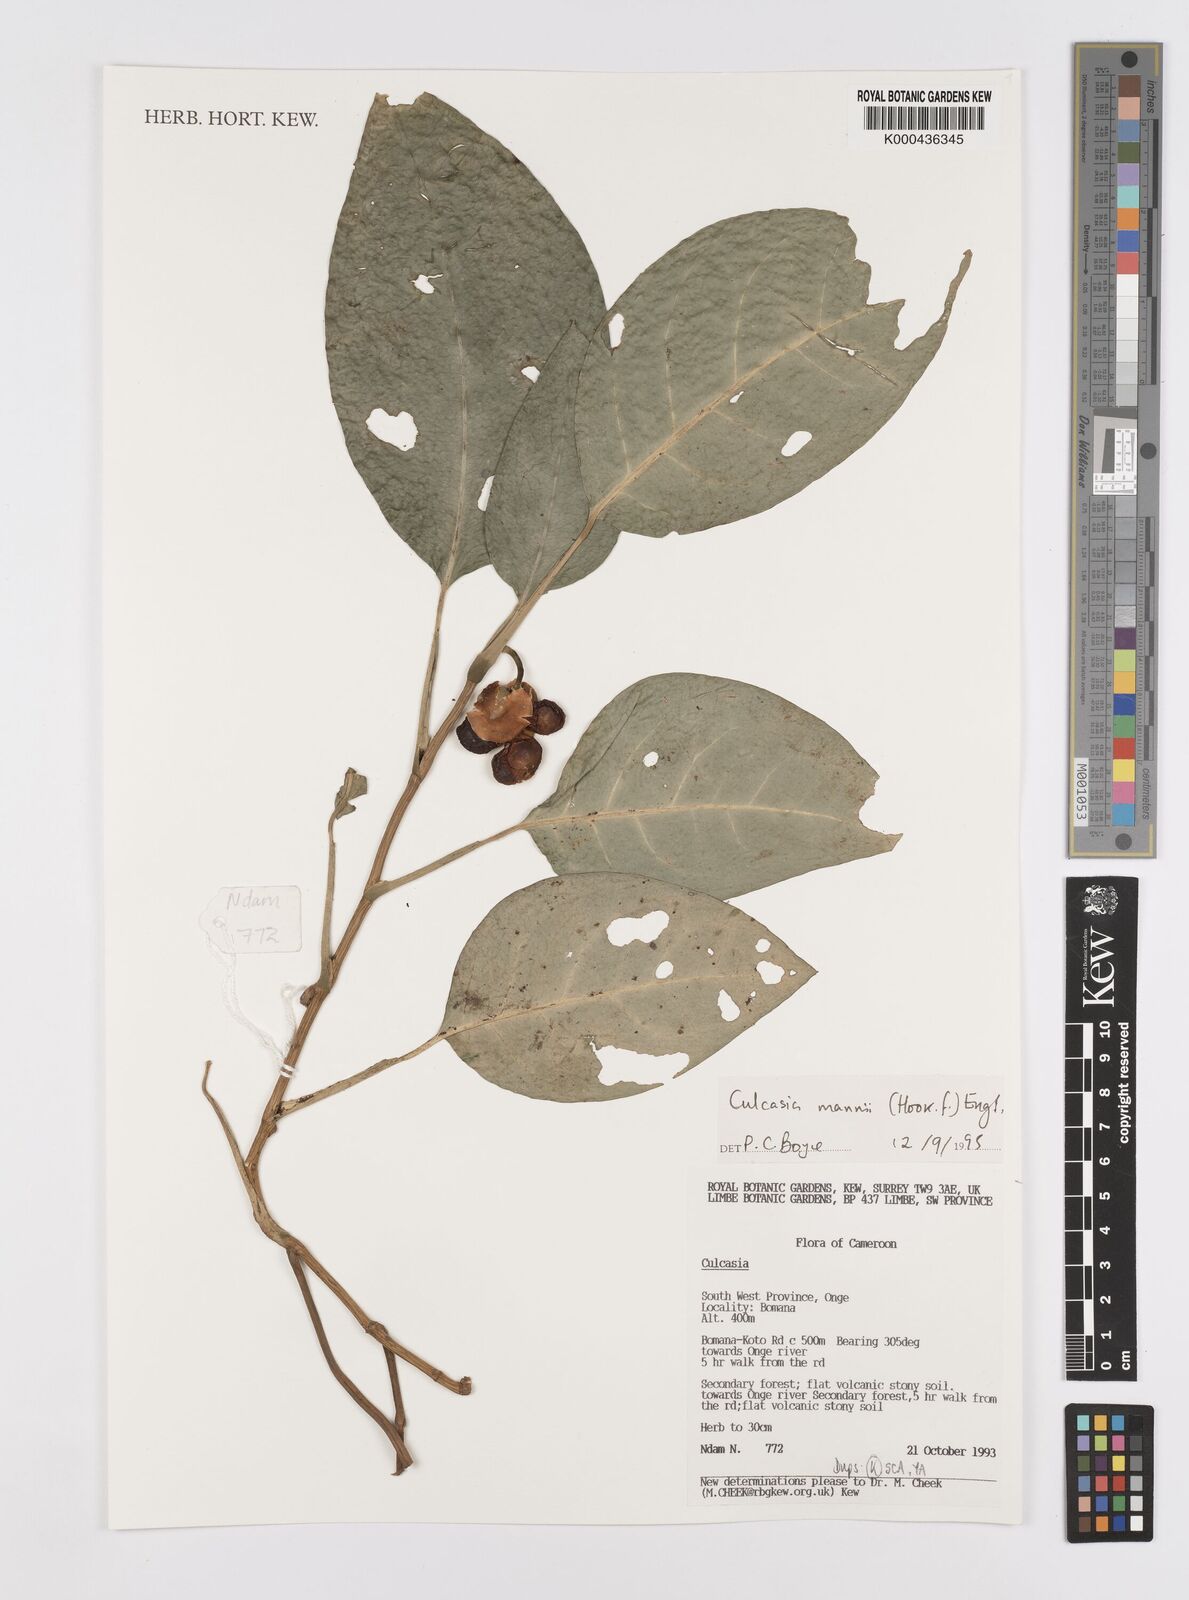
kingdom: Plantae
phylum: Tracheophyta
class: Liliopsida
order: Alismatales
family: Araceae
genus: Culcasia
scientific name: Culcasia mannii
